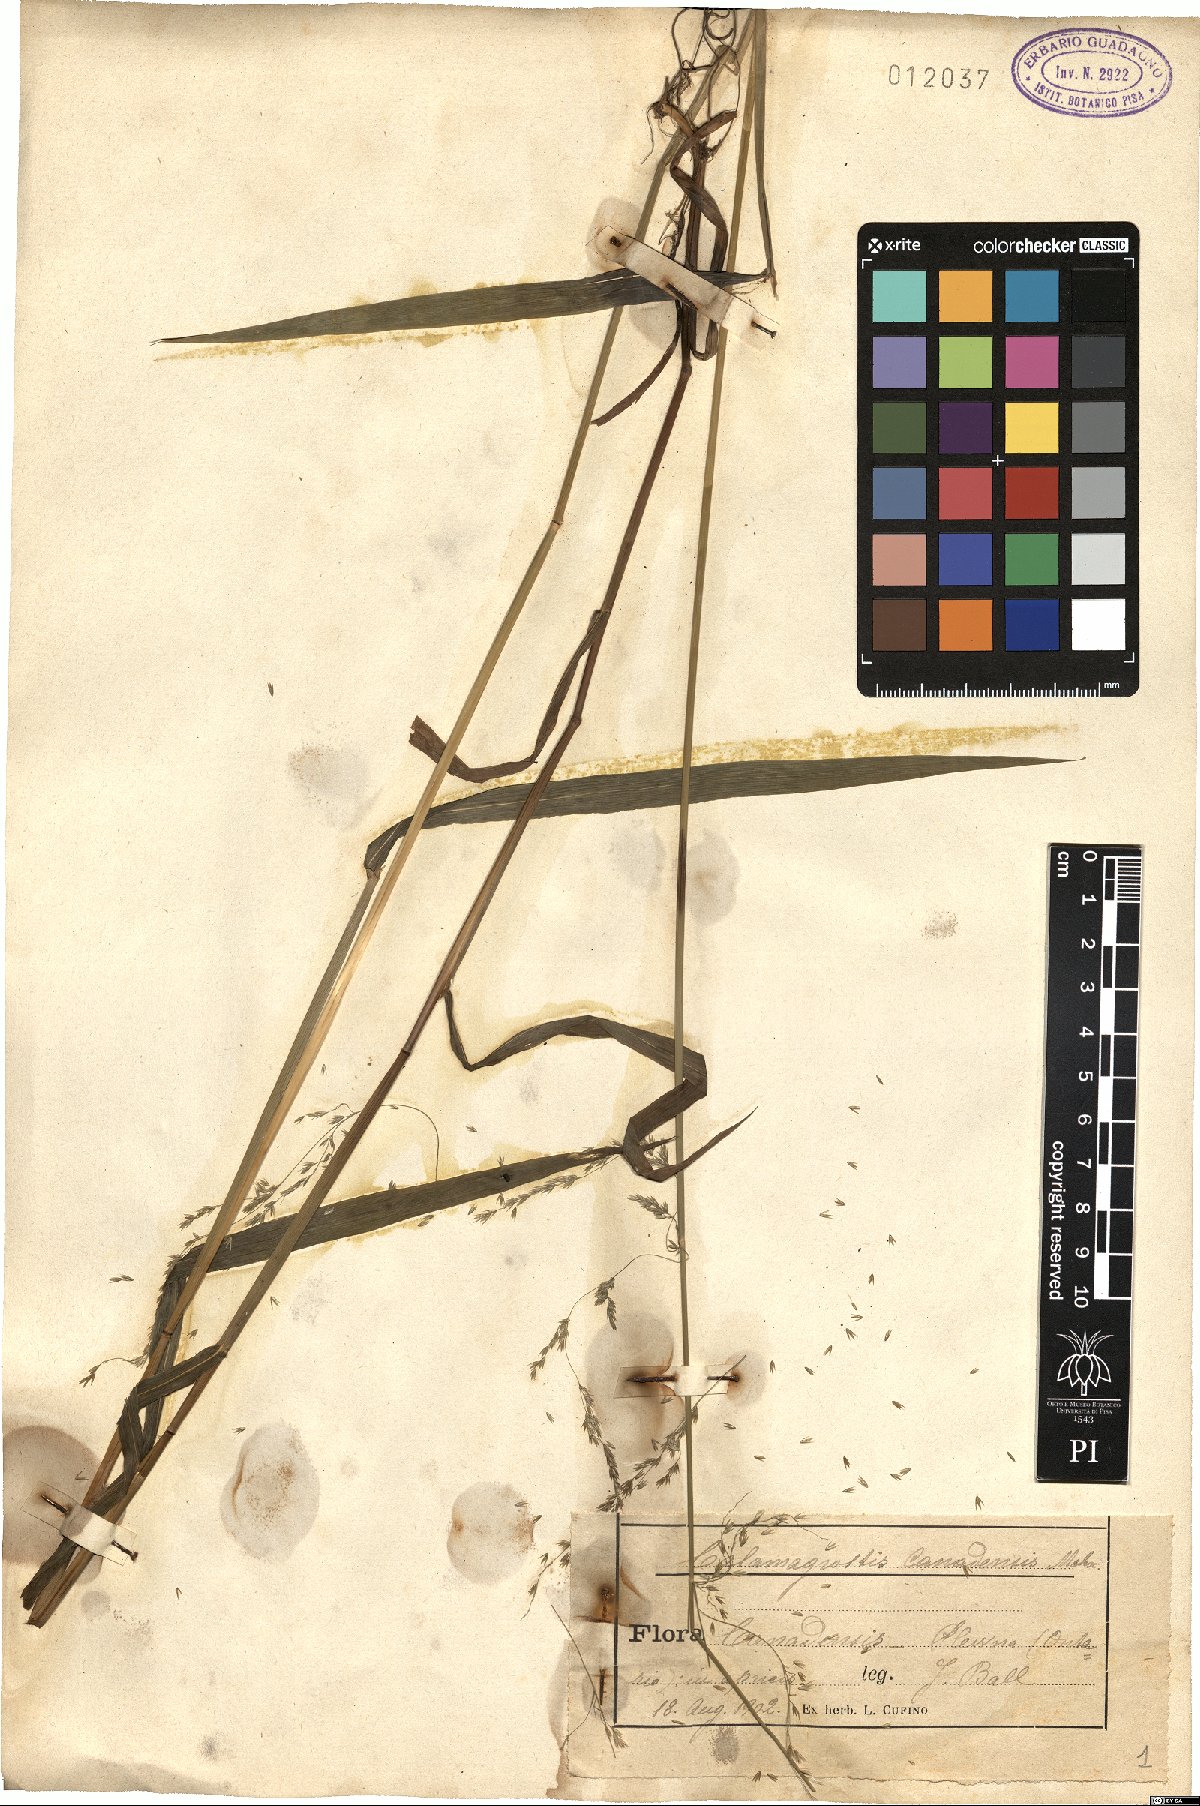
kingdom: Plantae
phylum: Tracheophyta
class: Liliopsida
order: Poales
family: Poaceae
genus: Calamagrostis
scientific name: Calamagrostis canadensis
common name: Canada bluejoint
